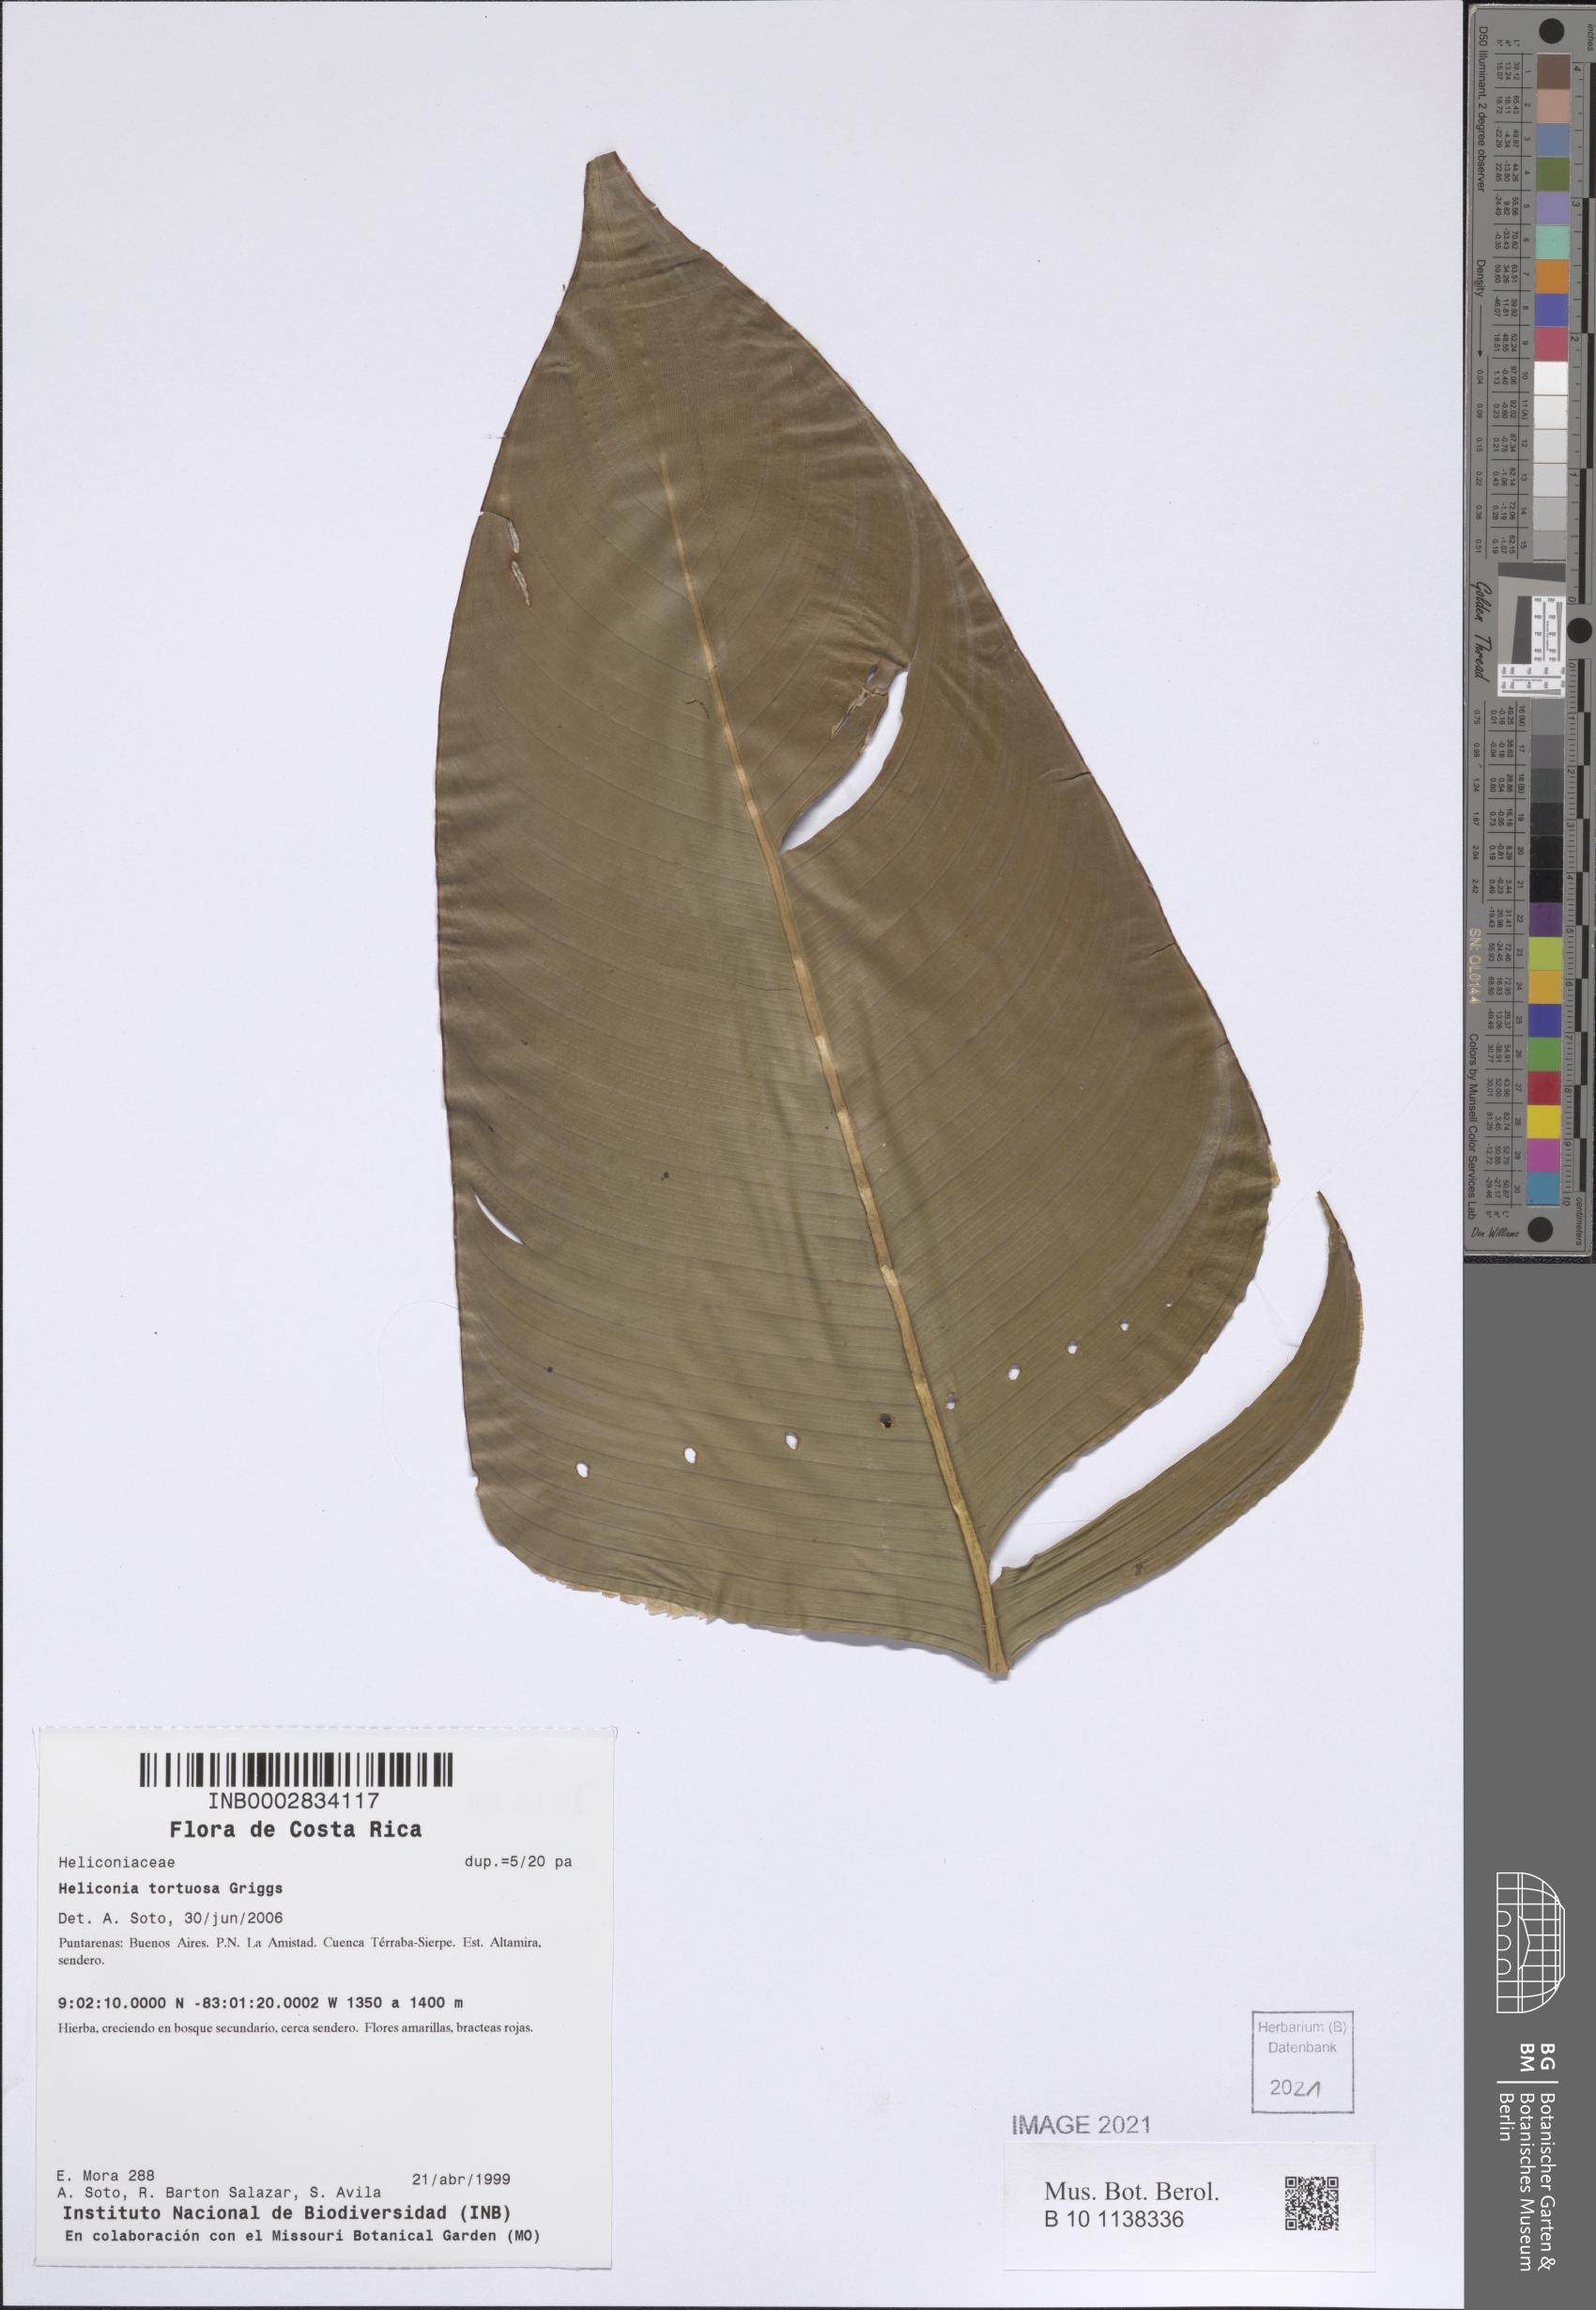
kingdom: Plantae
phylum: Tracheophyta
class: Liliopsida
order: Zingiberales
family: Heliconiaceae
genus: Heliconia
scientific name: Heliconia tortuosa
